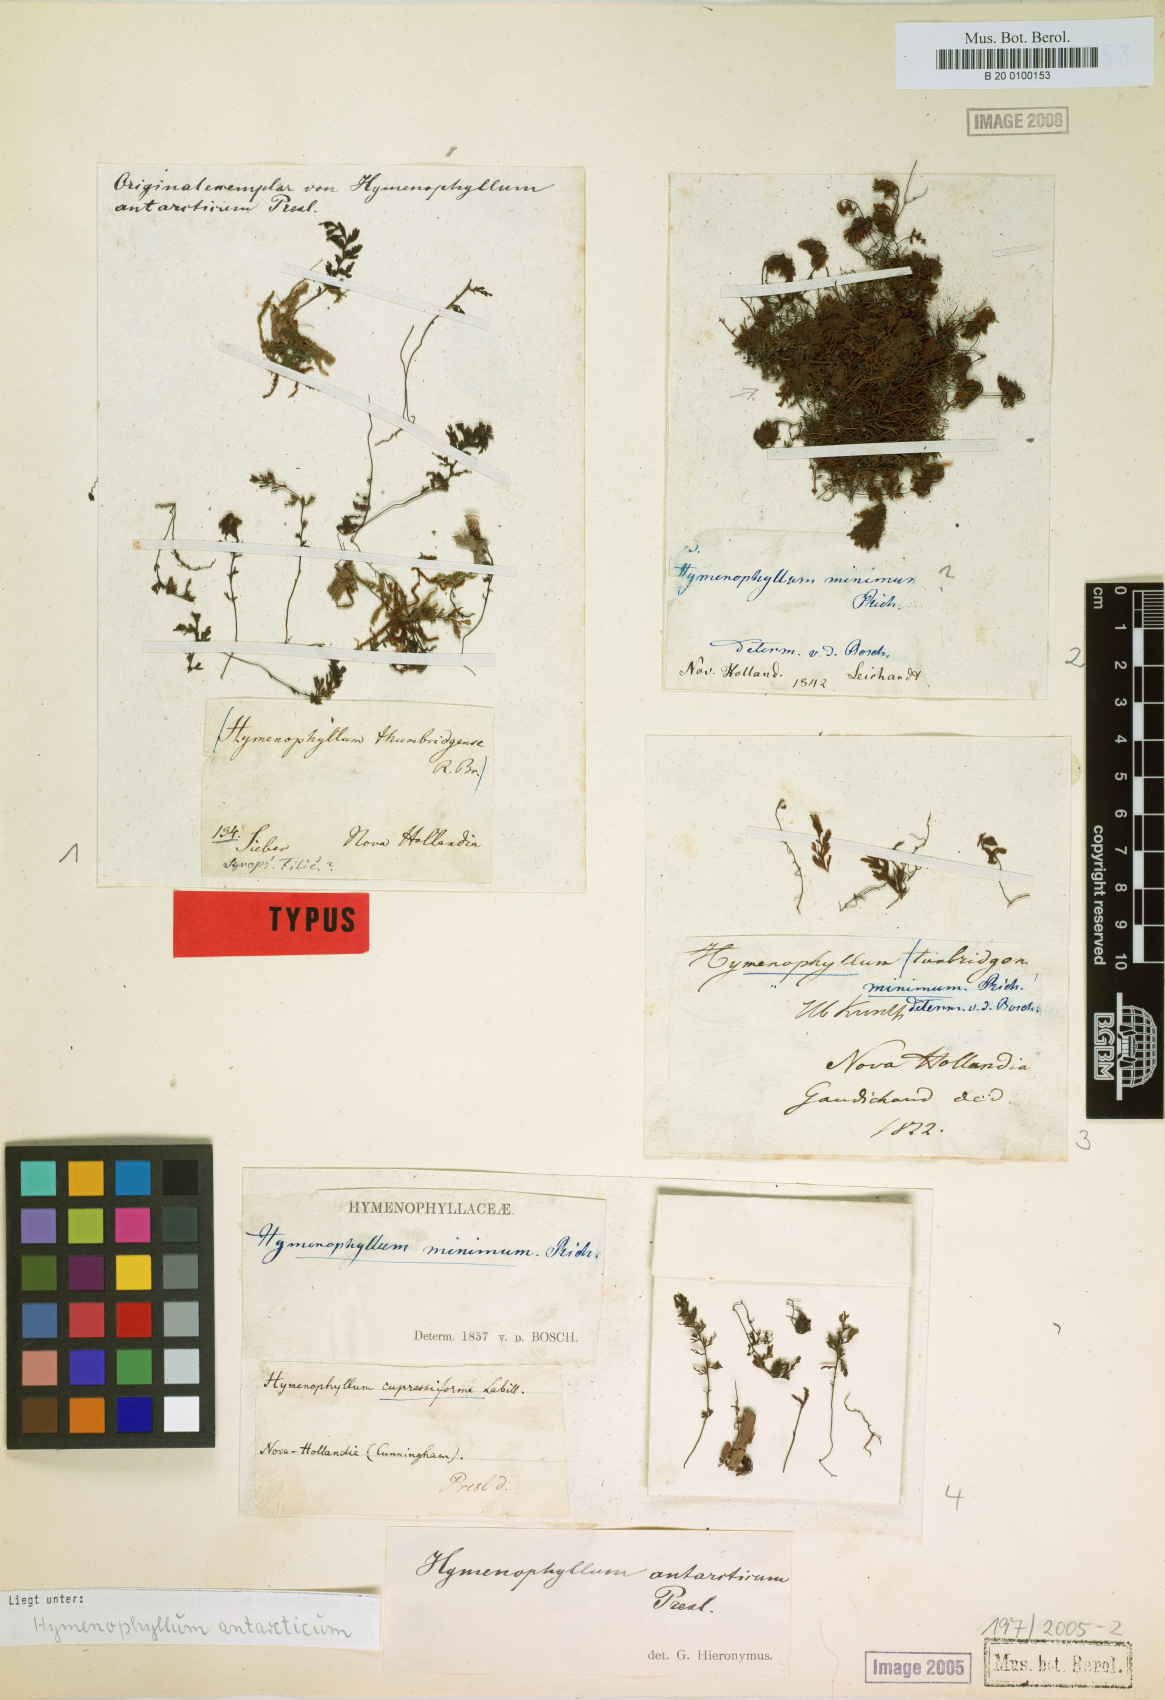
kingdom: Plantae
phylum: Tracheophyta
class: Polypodiopsida
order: Hymenophyllales
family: Hymenophyllaceae
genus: Hymenophyllum
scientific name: Hymenophyllum cupressiforme
